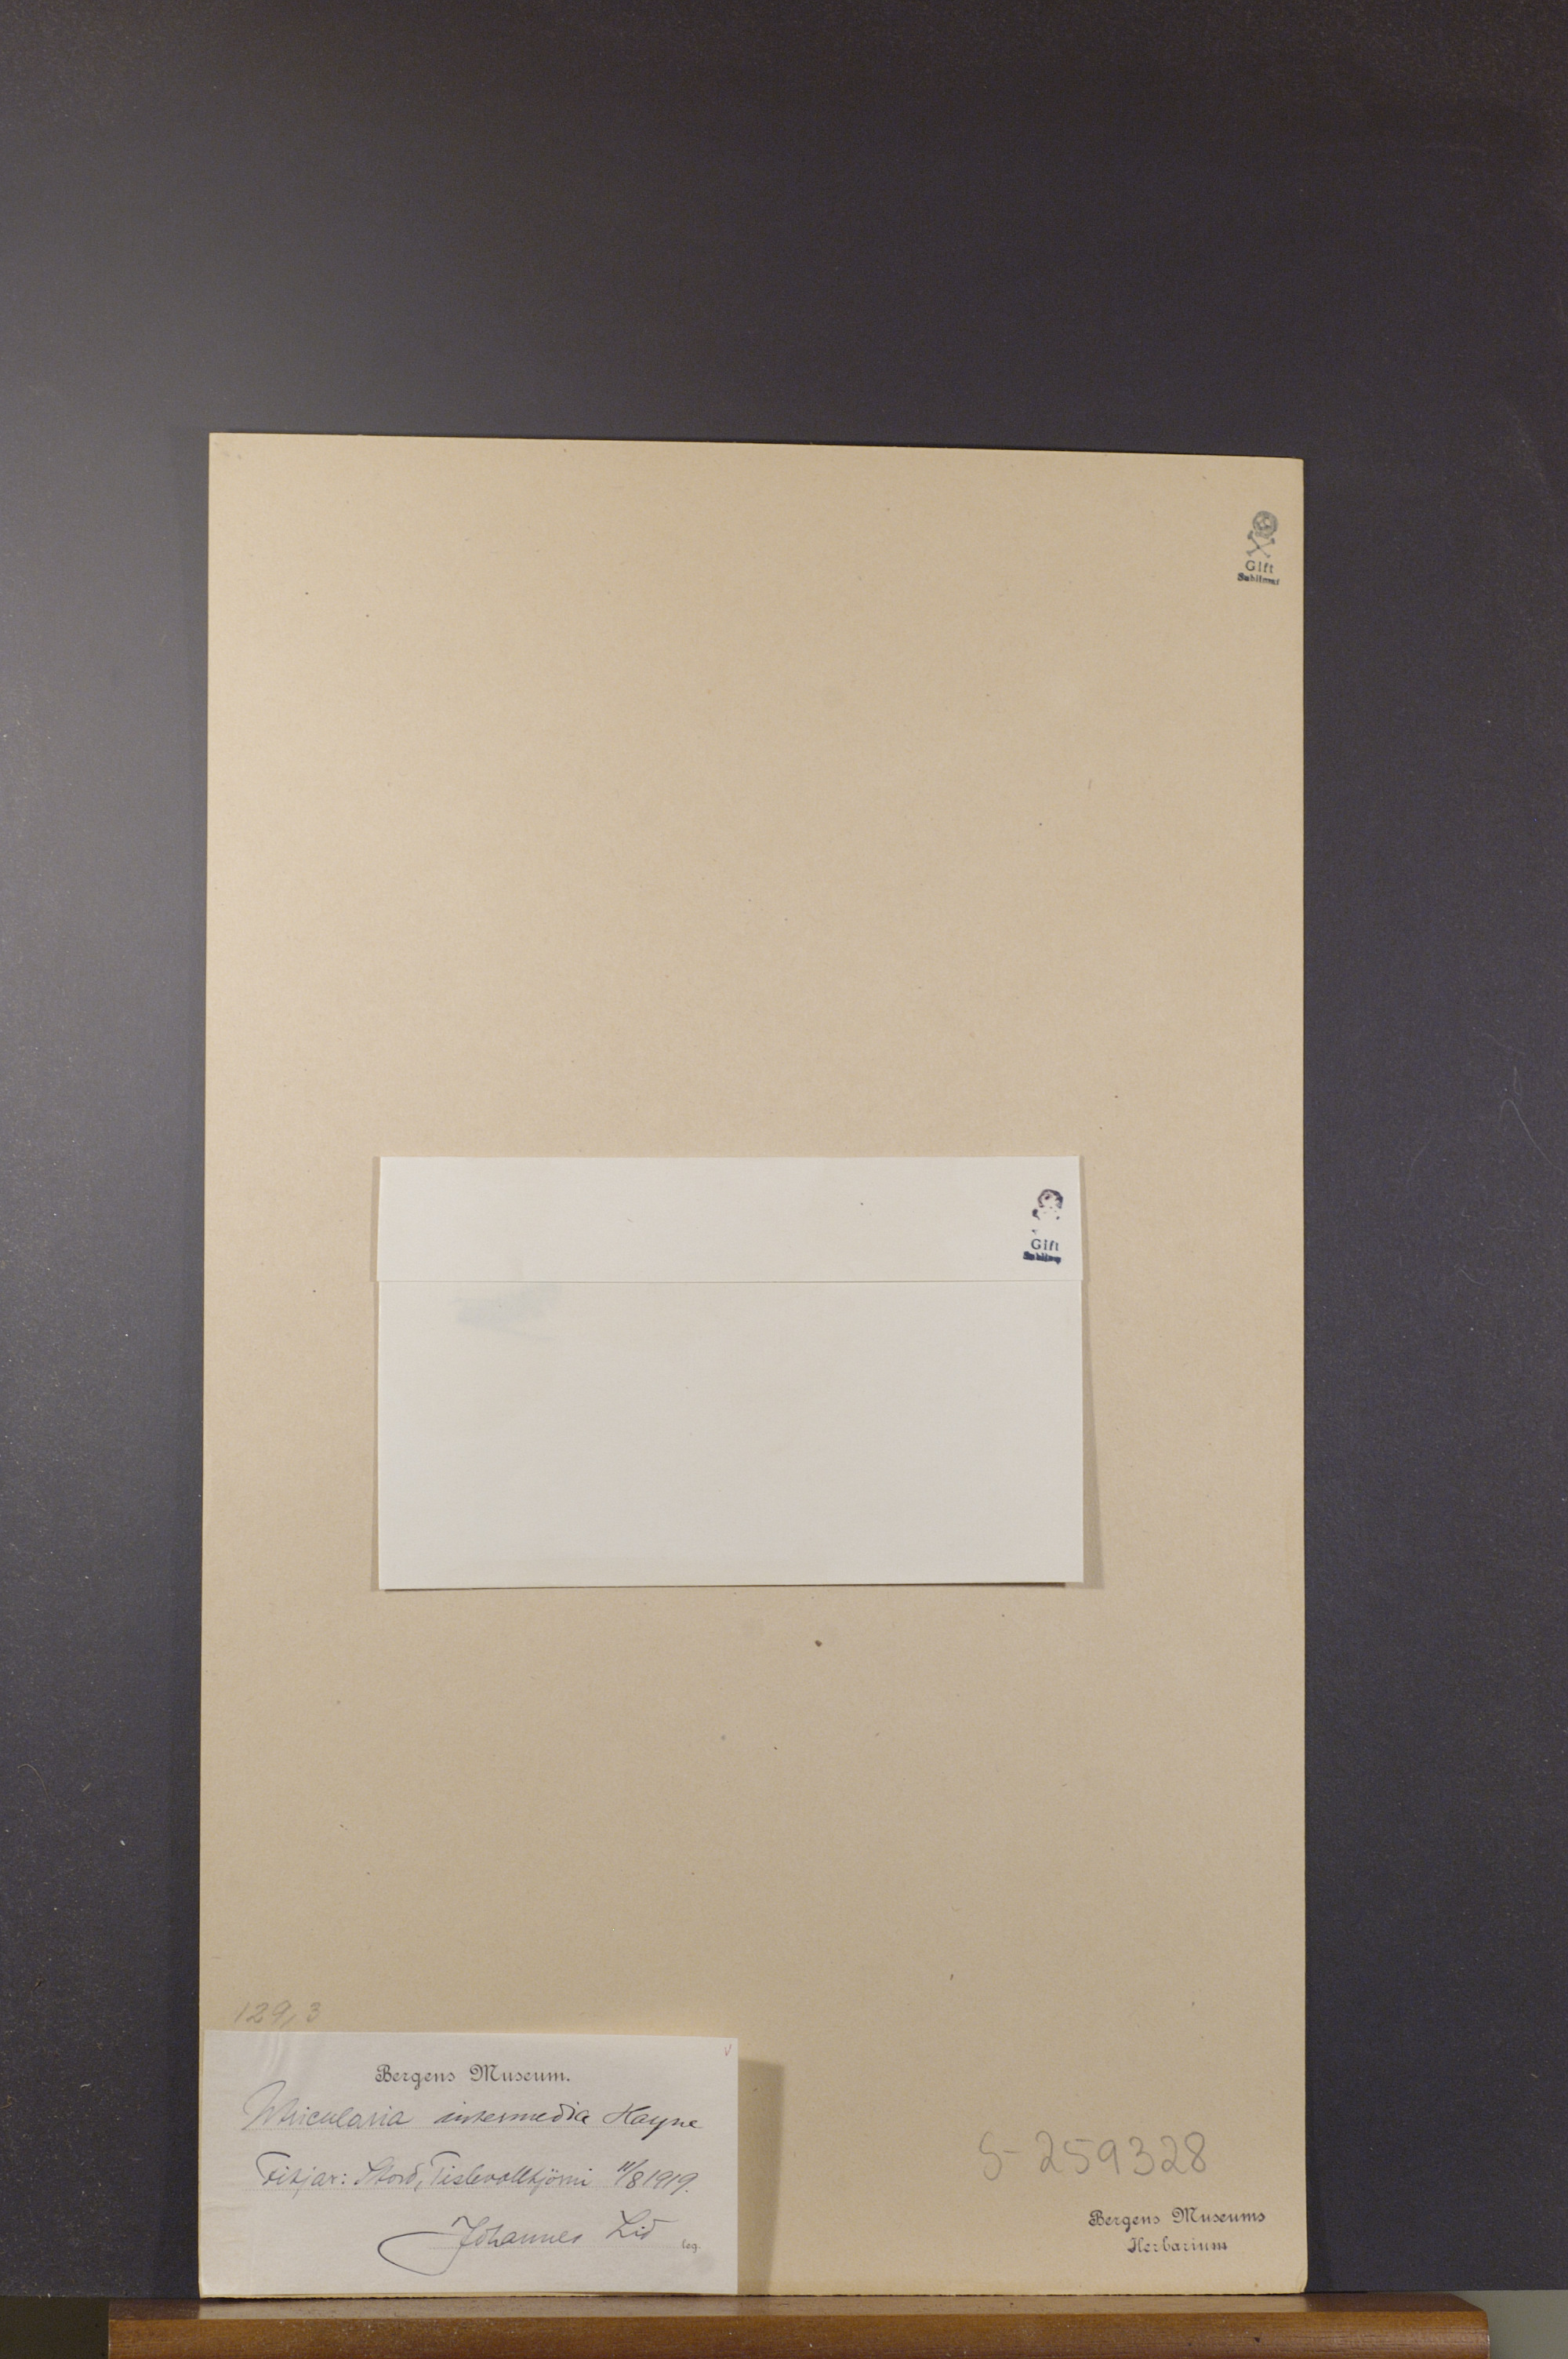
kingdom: Plantae
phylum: Tracheophyta
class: Magnoliopsida
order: Lamiales
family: Lentibulariaceae
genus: Utricularia
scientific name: Utricularia intermedia
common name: Intermediate bladderwort
